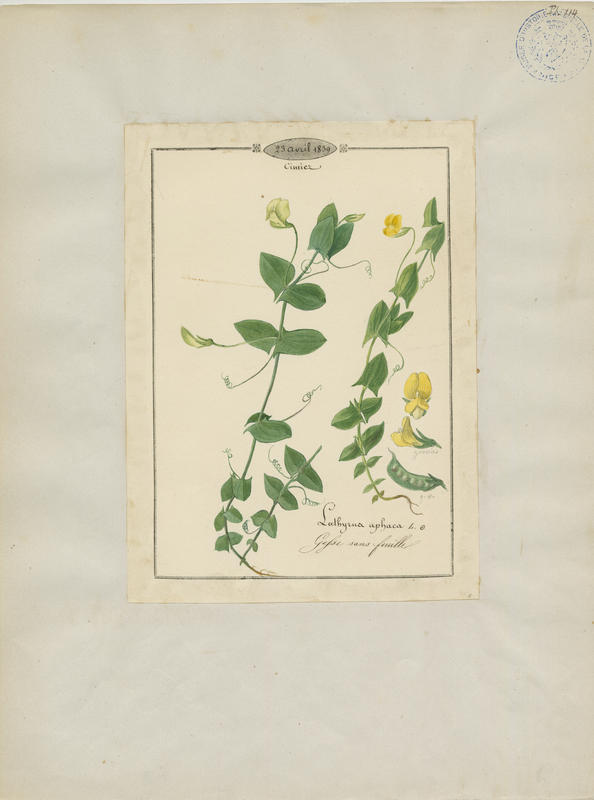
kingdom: Plantae
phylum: Tracheophyta
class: Magnoliopsida
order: Fabales
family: Fabaceae
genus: Lathyrus
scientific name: Lathyrus aphaca
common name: Yellow vetchling
